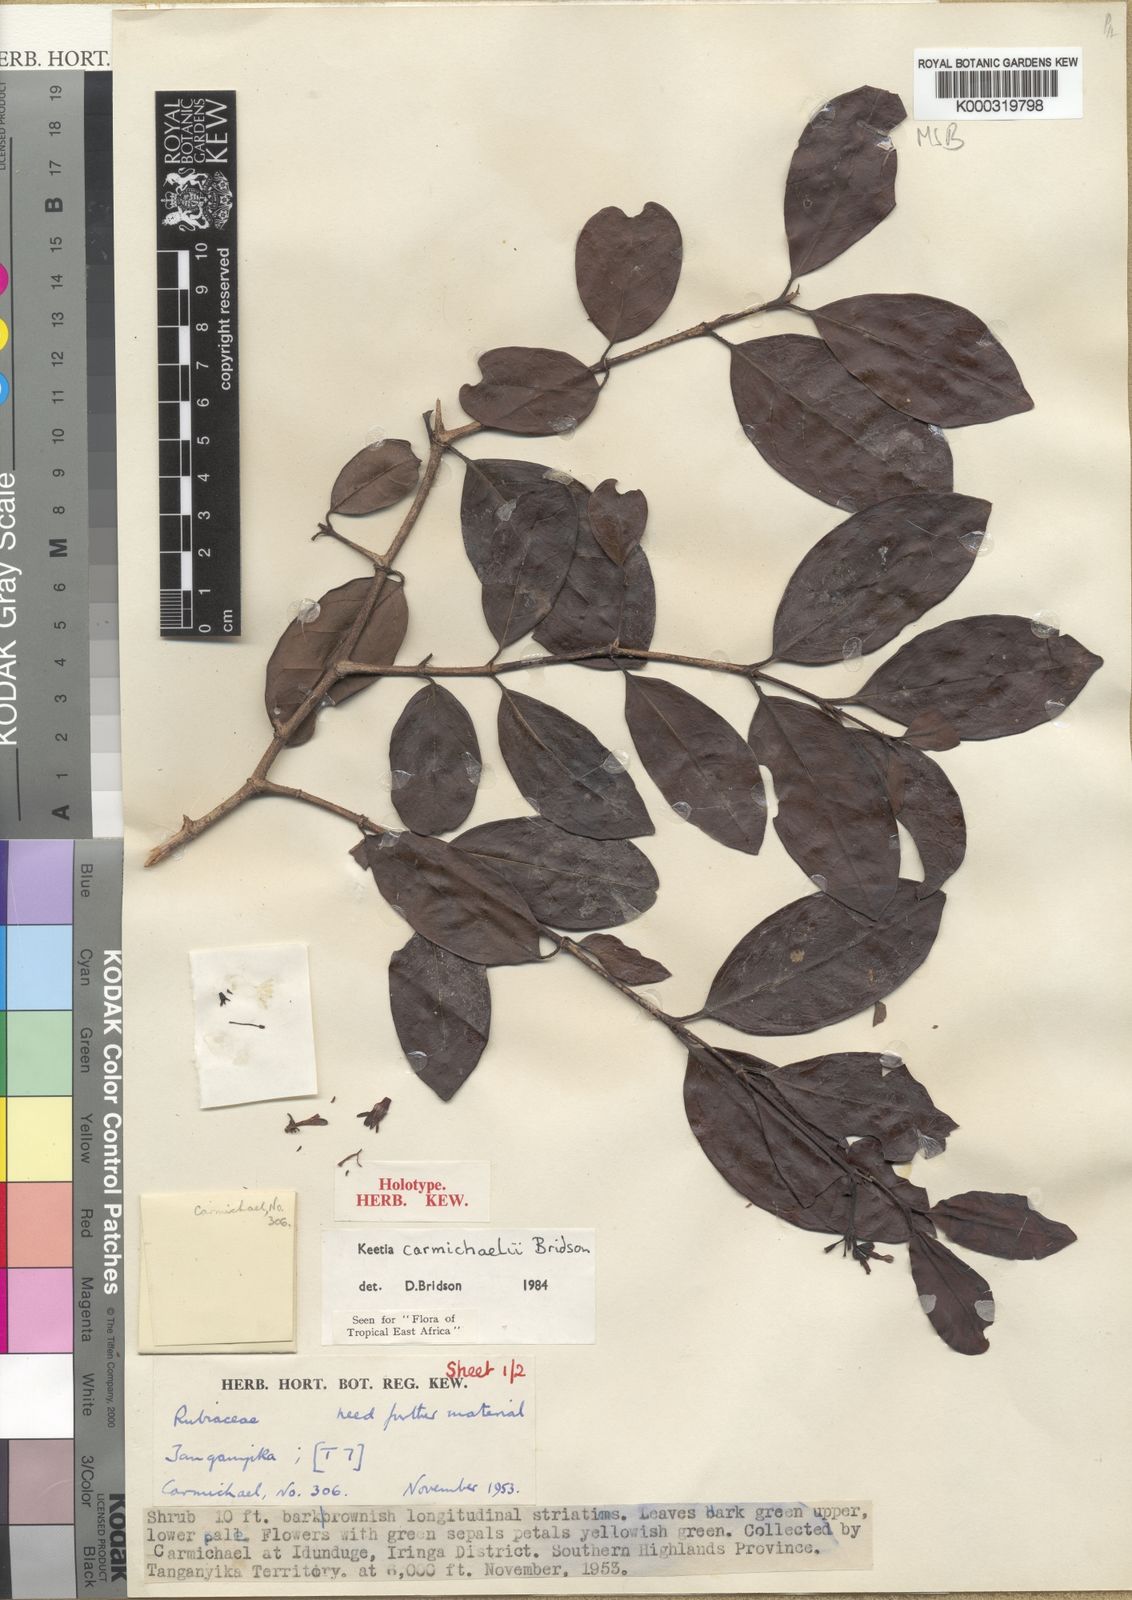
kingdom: Plantae
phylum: Tracheophyta
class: Magnoliopsida
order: Gentianales
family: Rubiaceae
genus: Keetia
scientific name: Keetia
